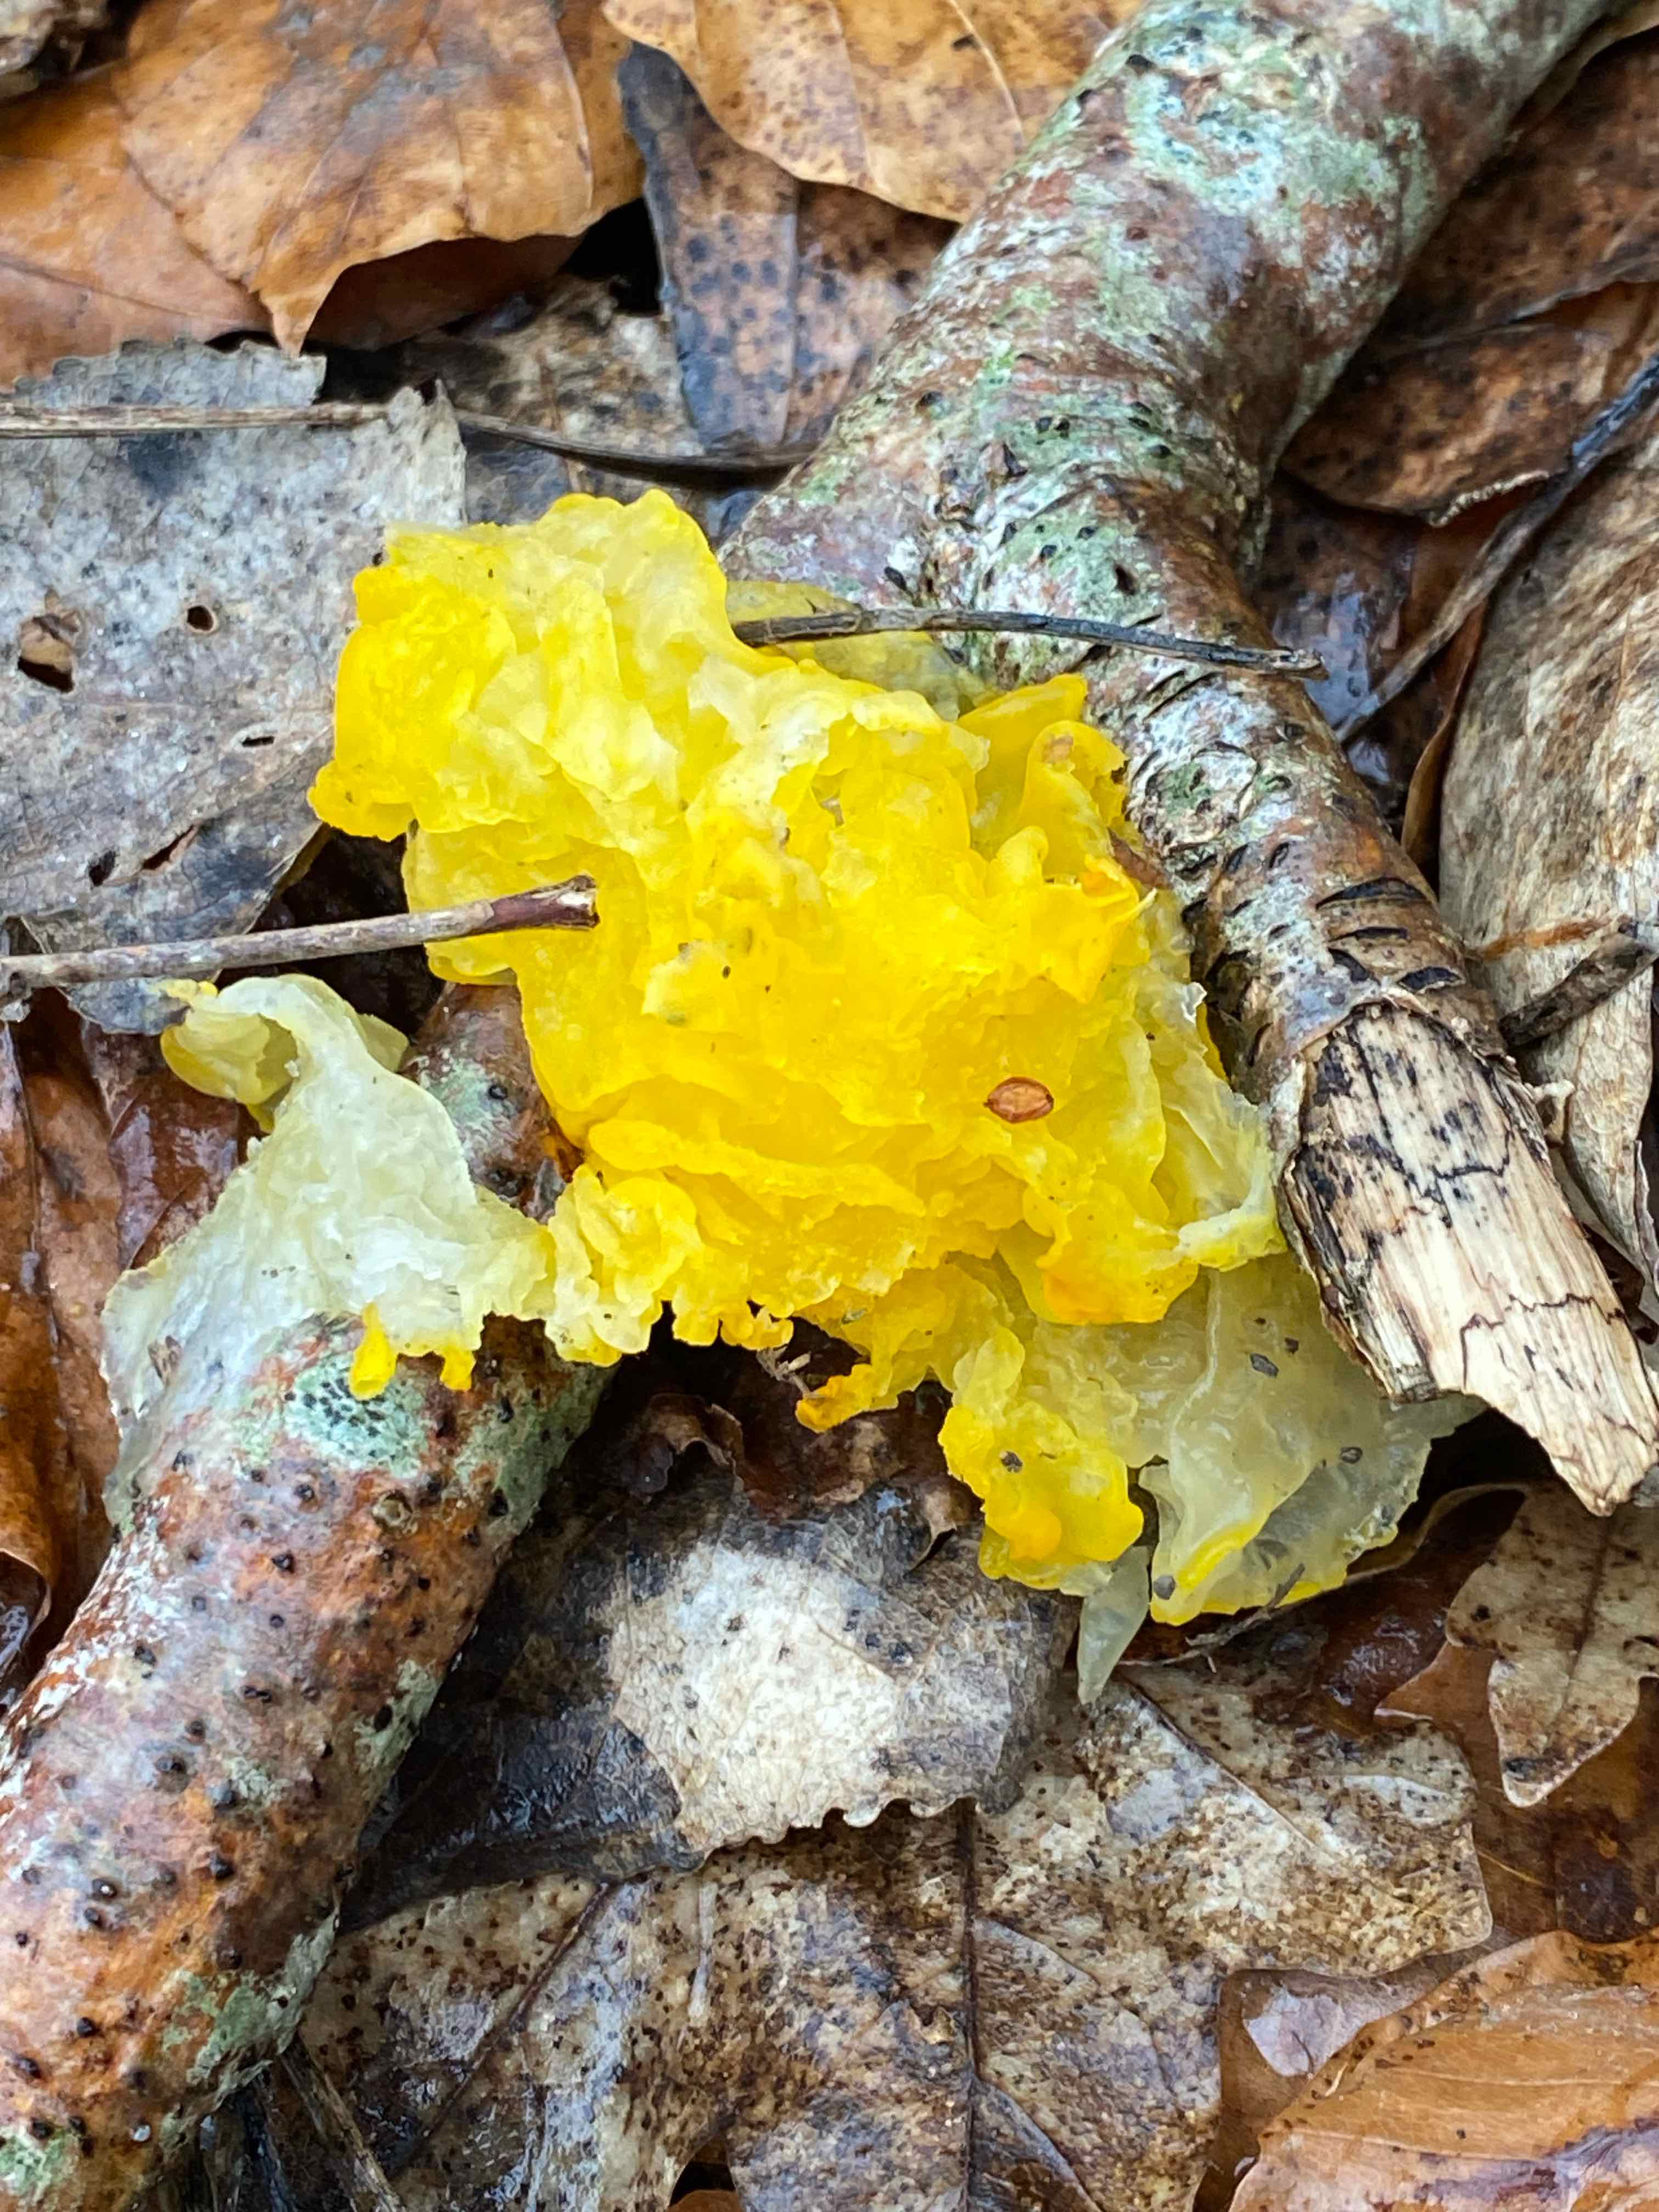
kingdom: Fungi
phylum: Basidiomycota
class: Tremellomycetes
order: Tremellales
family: Tremellaceae
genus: Tremella
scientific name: Tremella mesenterica
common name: gul bævresvamp
